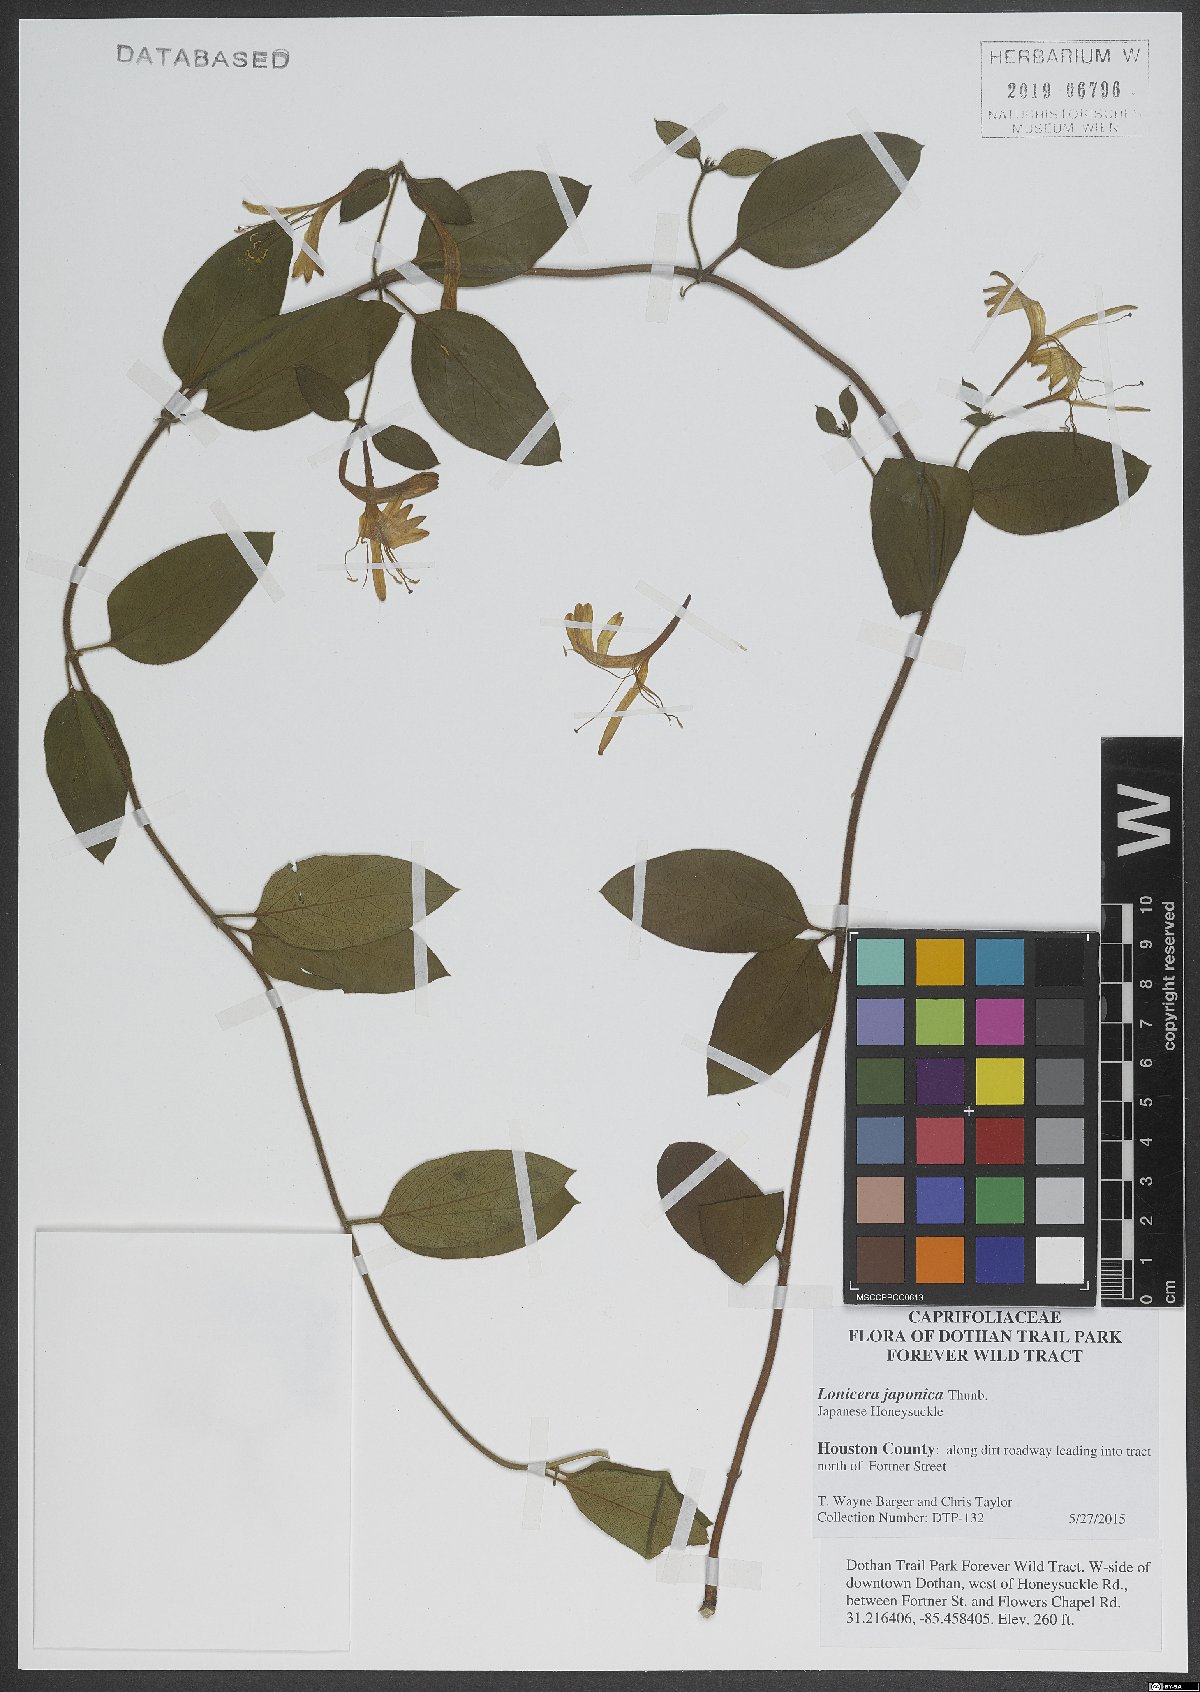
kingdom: Plantae
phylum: Tracheophyta
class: Magnoliopsida
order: Dipsacales
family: Caprifoliaceae
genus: Lonicera
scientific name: Lonicera japonica
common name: Japanese honeysuckle
